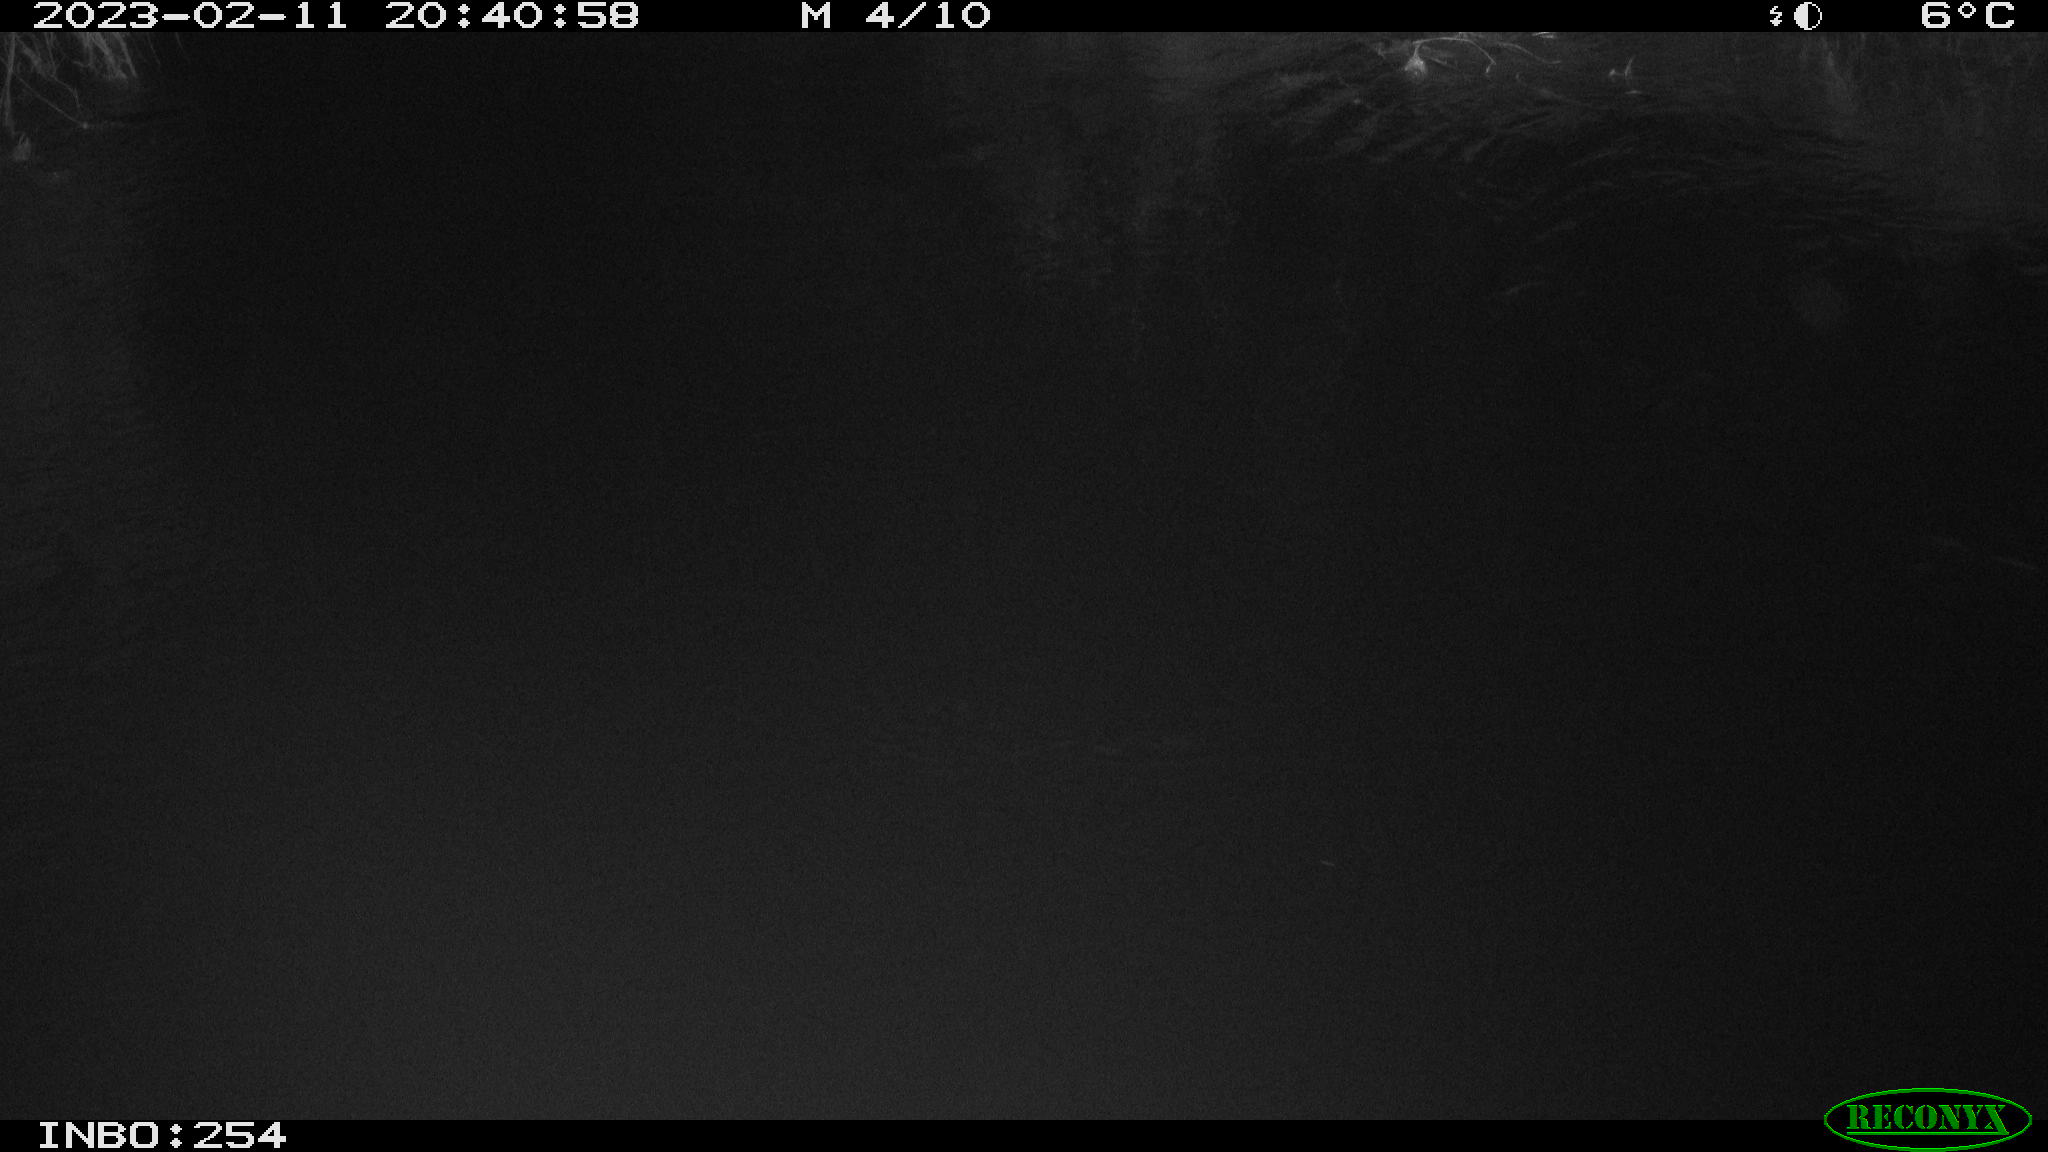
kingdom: Animalia
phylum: Chordata
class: Mammalia
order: Rodentia
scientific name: Rodentia
